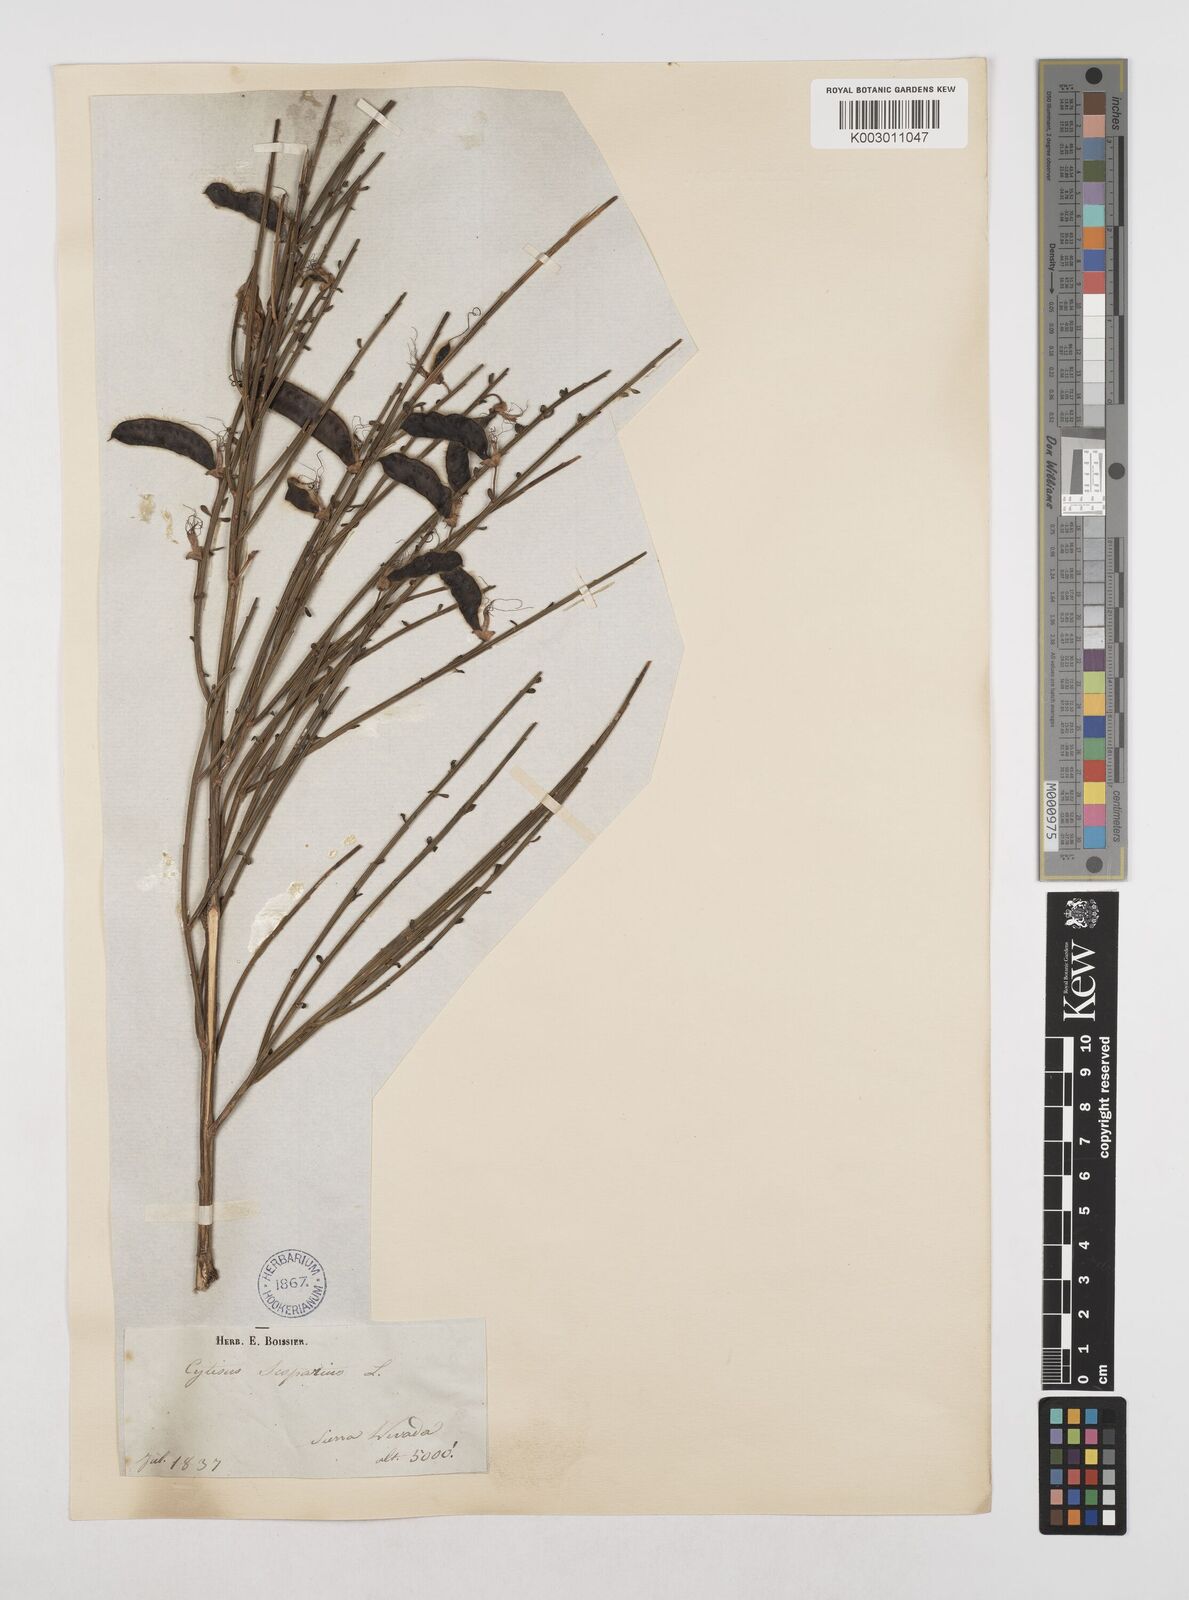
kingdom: Plantae
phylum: Tracheophyta
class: Magnoliopsida
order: Fabales
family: Fabaceae
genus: Cytisus
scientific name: Cytisus scoparius
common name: Scotch broom
